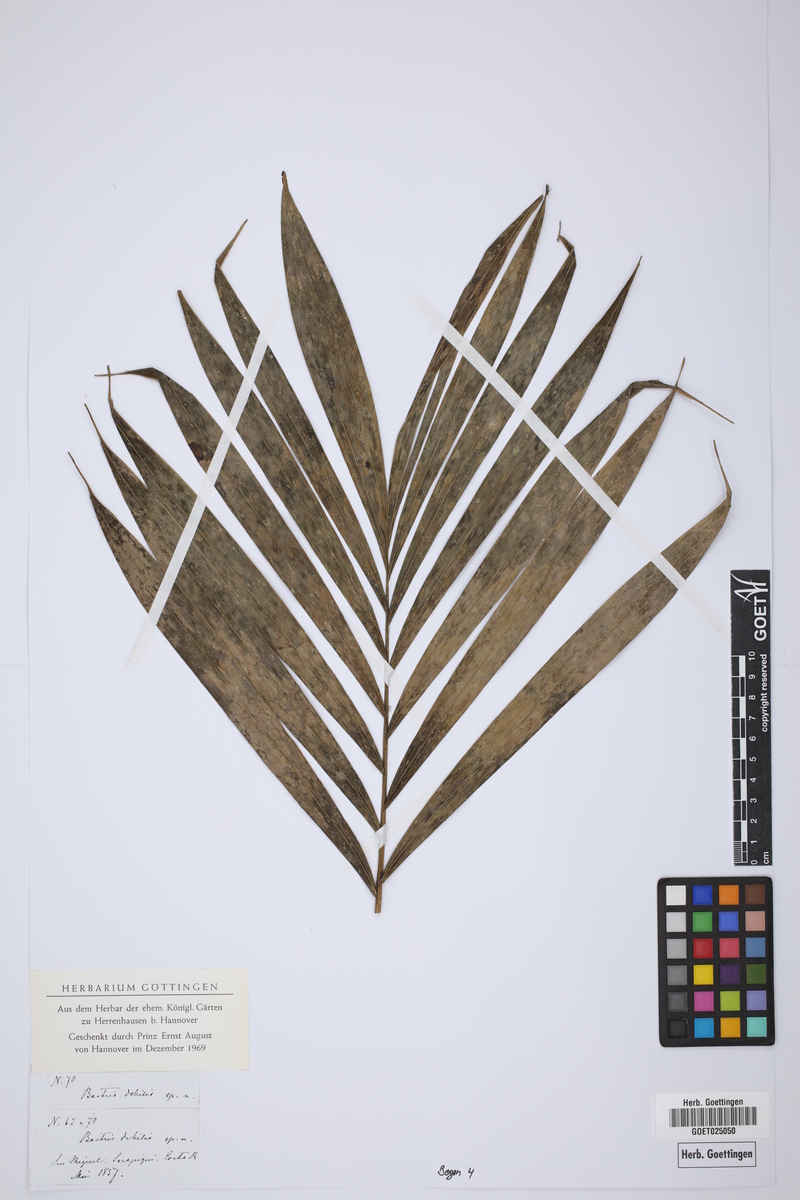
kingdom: Plantae
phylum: Tracheophyta
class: Liliopsida
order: Arecales
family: Arecaceae
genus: Bactris
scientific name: Bactris
